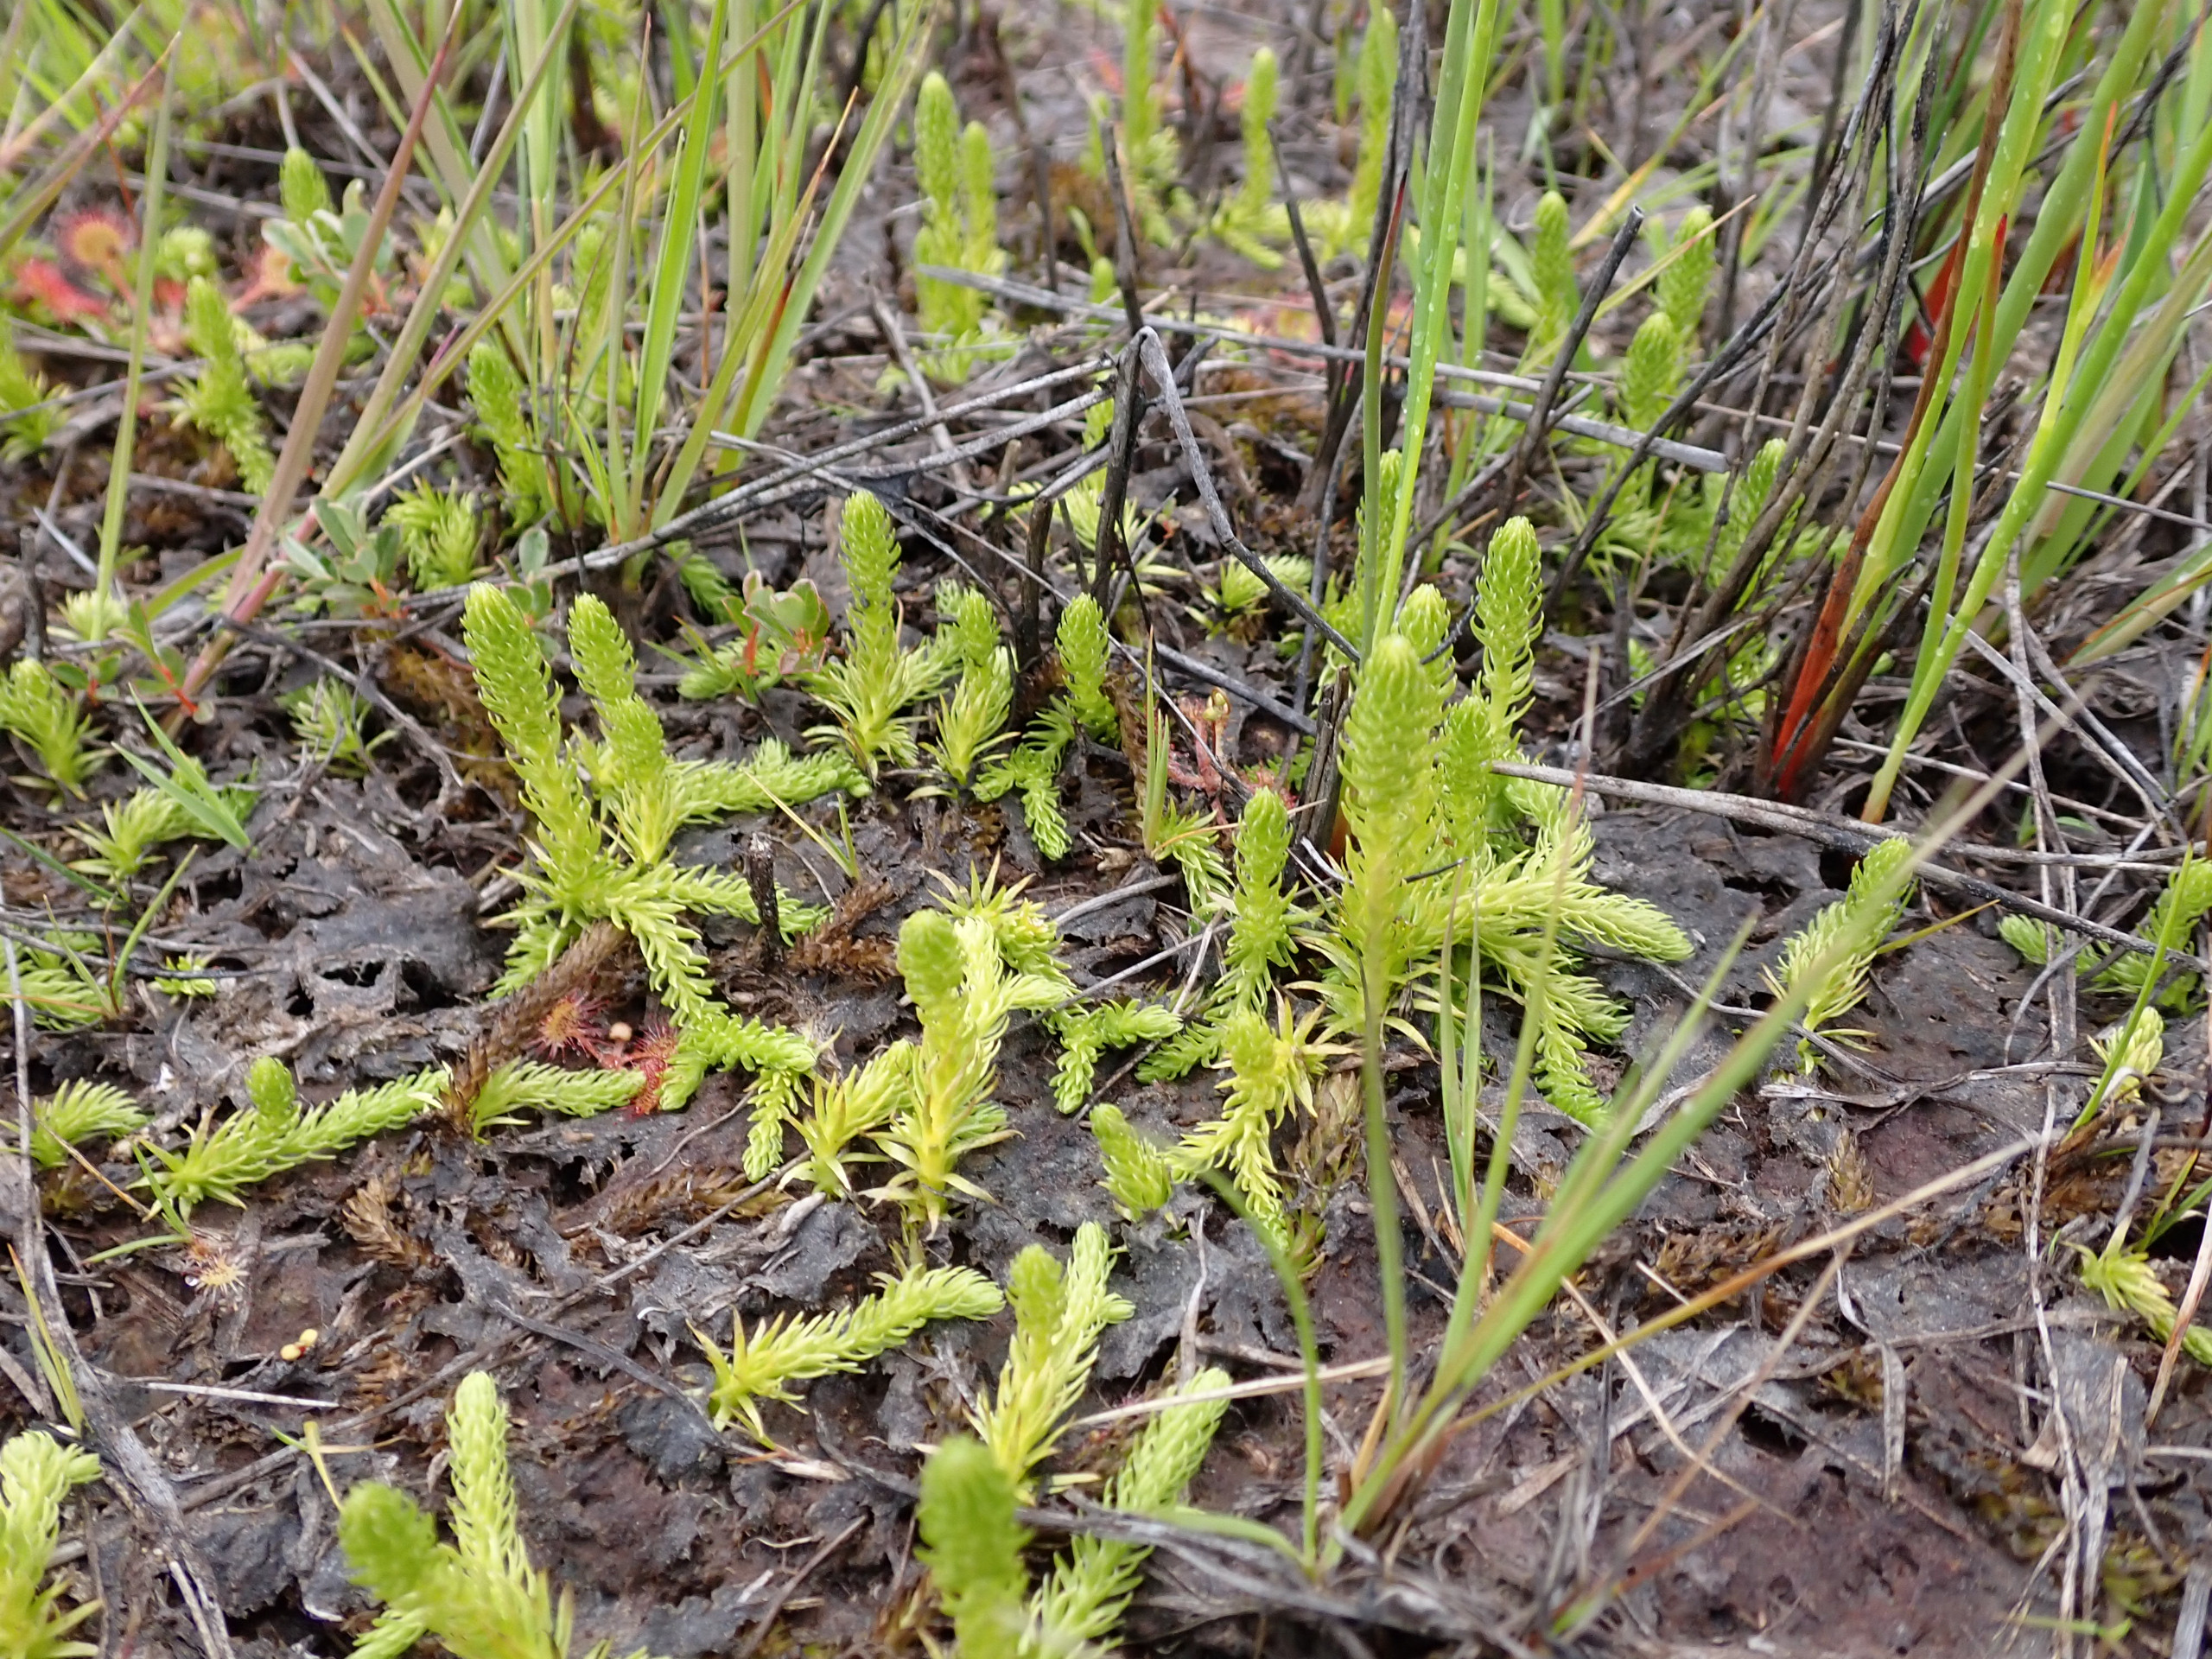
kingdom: Plantae
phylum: Tracheophyta
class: Lycopodiopsida
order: Lycopodiales
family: Lycopodiaceae
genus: Lycopodiella
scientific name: Lycopodiella inundata
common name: Liden ulvefod
